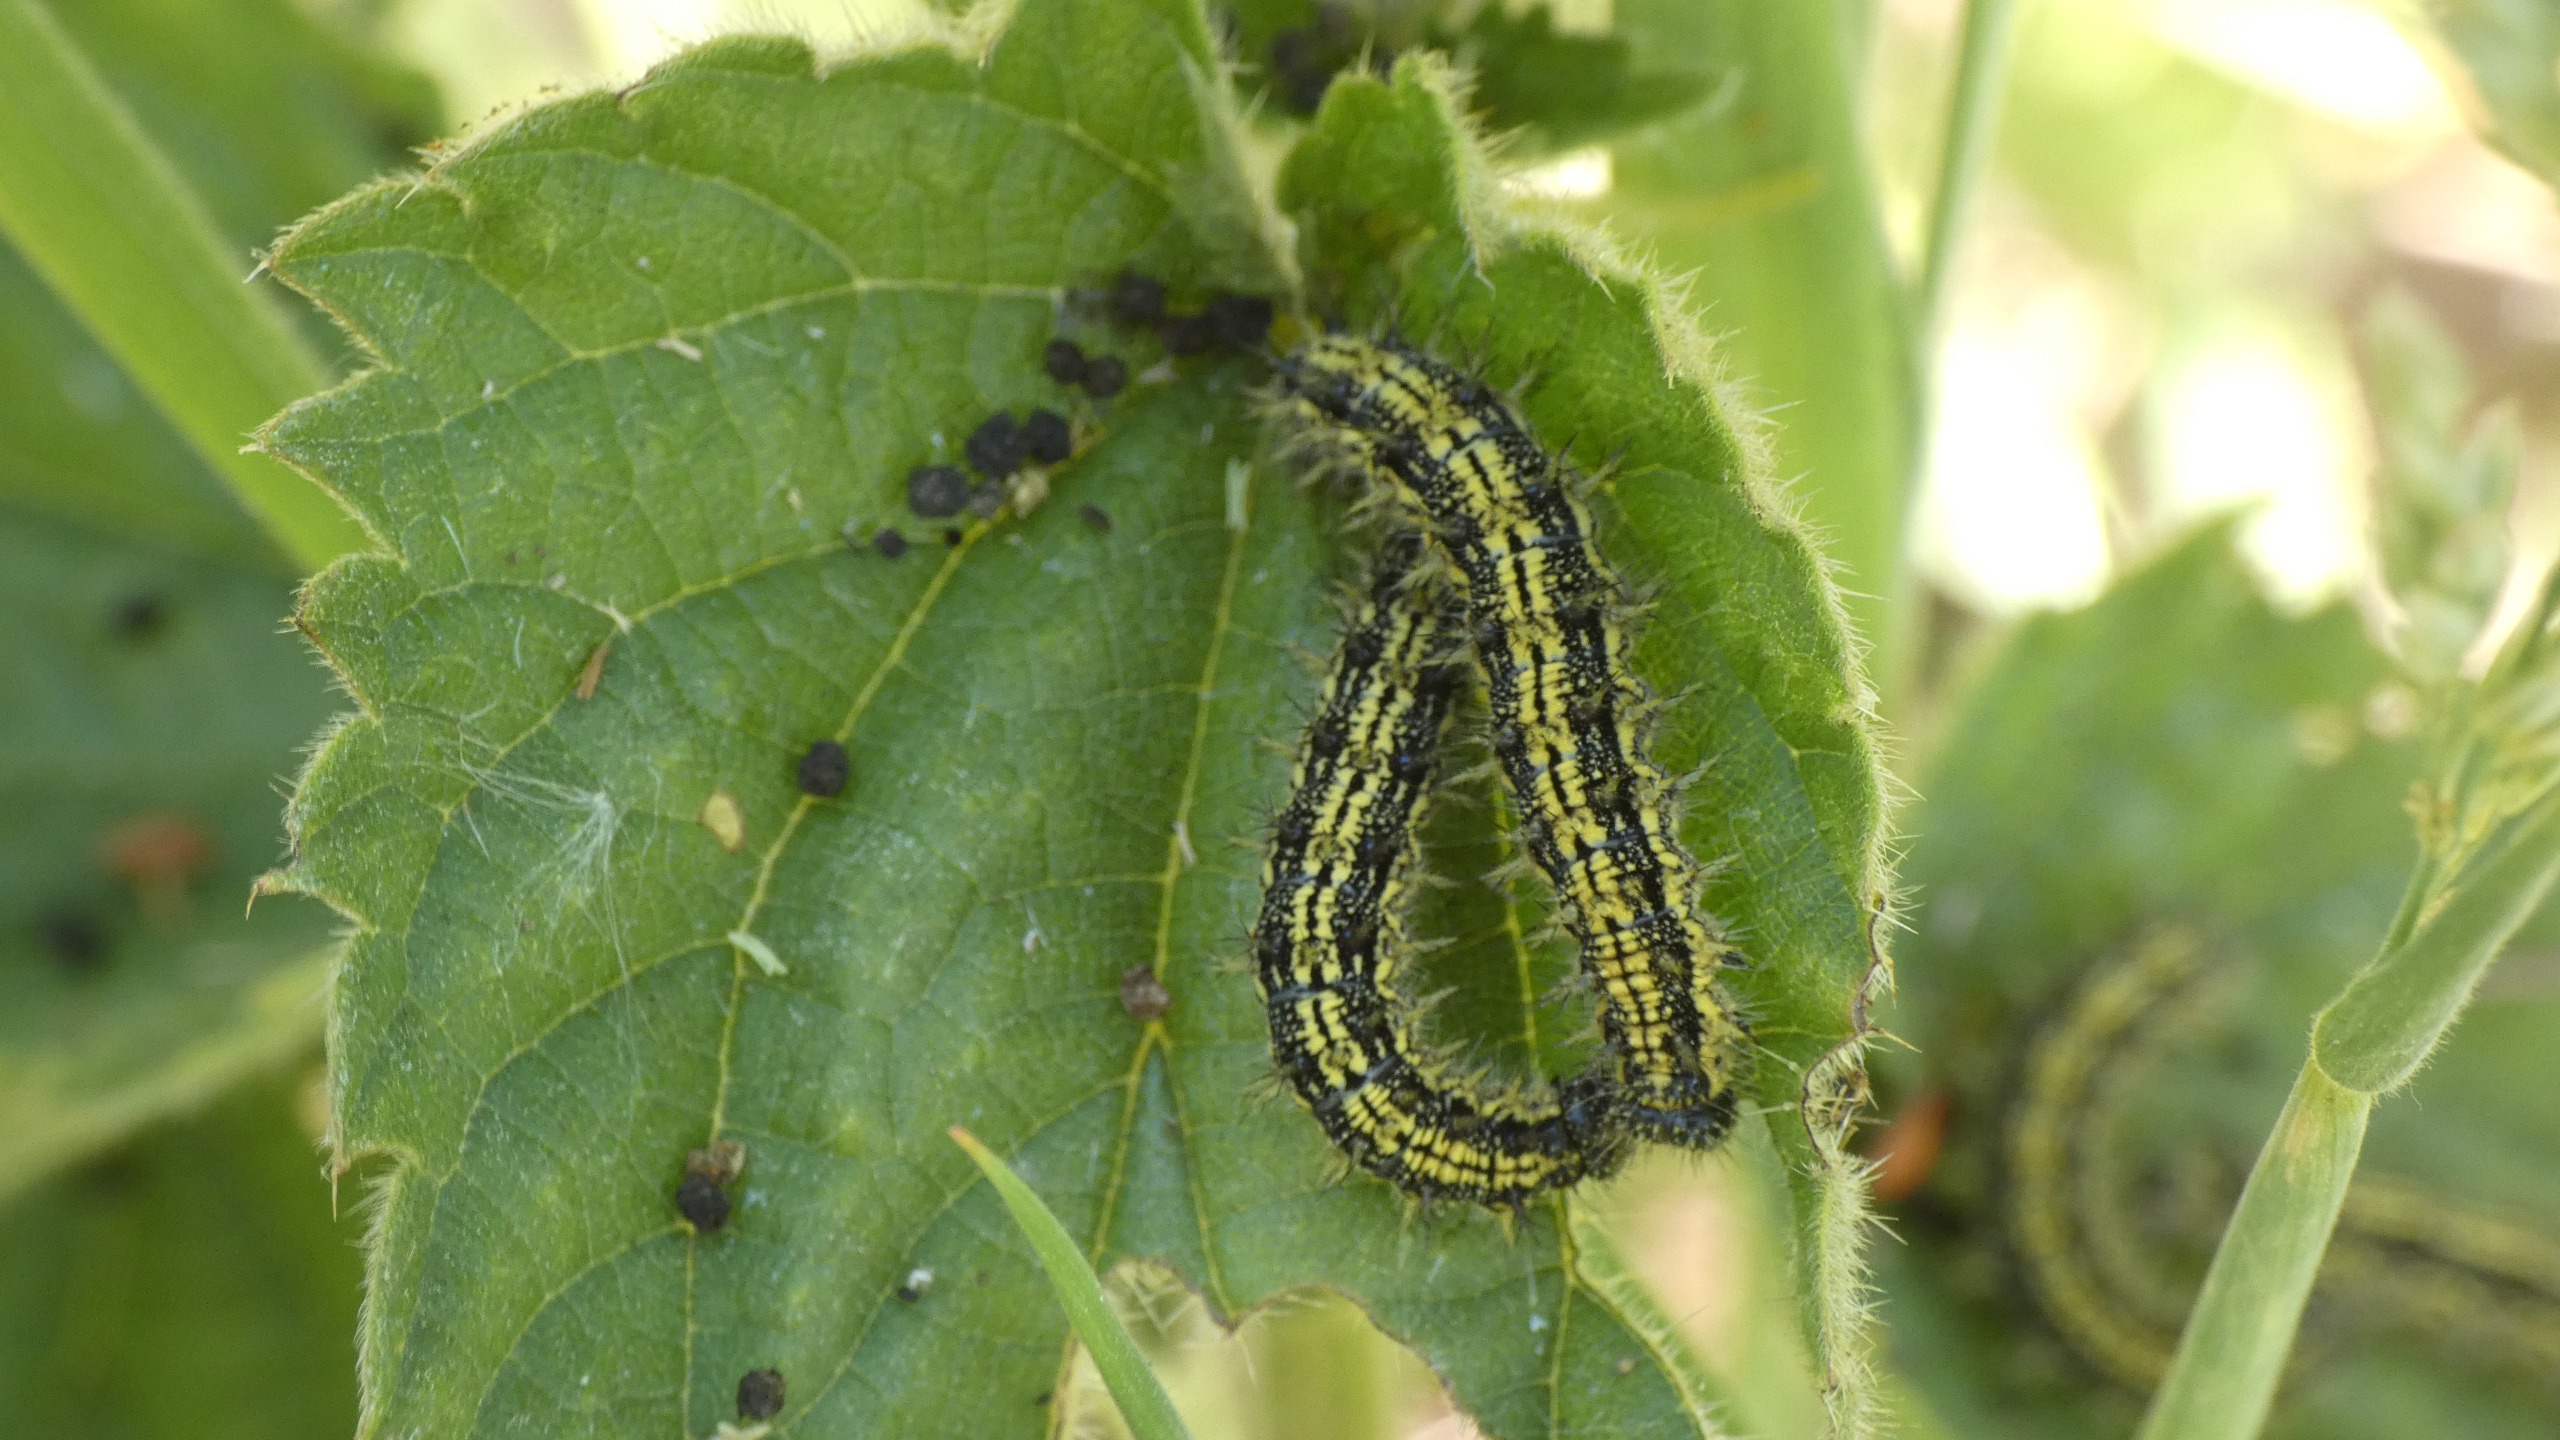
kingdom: Animalia
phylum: Arthropoda
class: Insecta
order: Lepidoptera
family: Nymphalidae
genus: Aglais
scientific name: Aglais urticae
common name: Nældens takvinge
